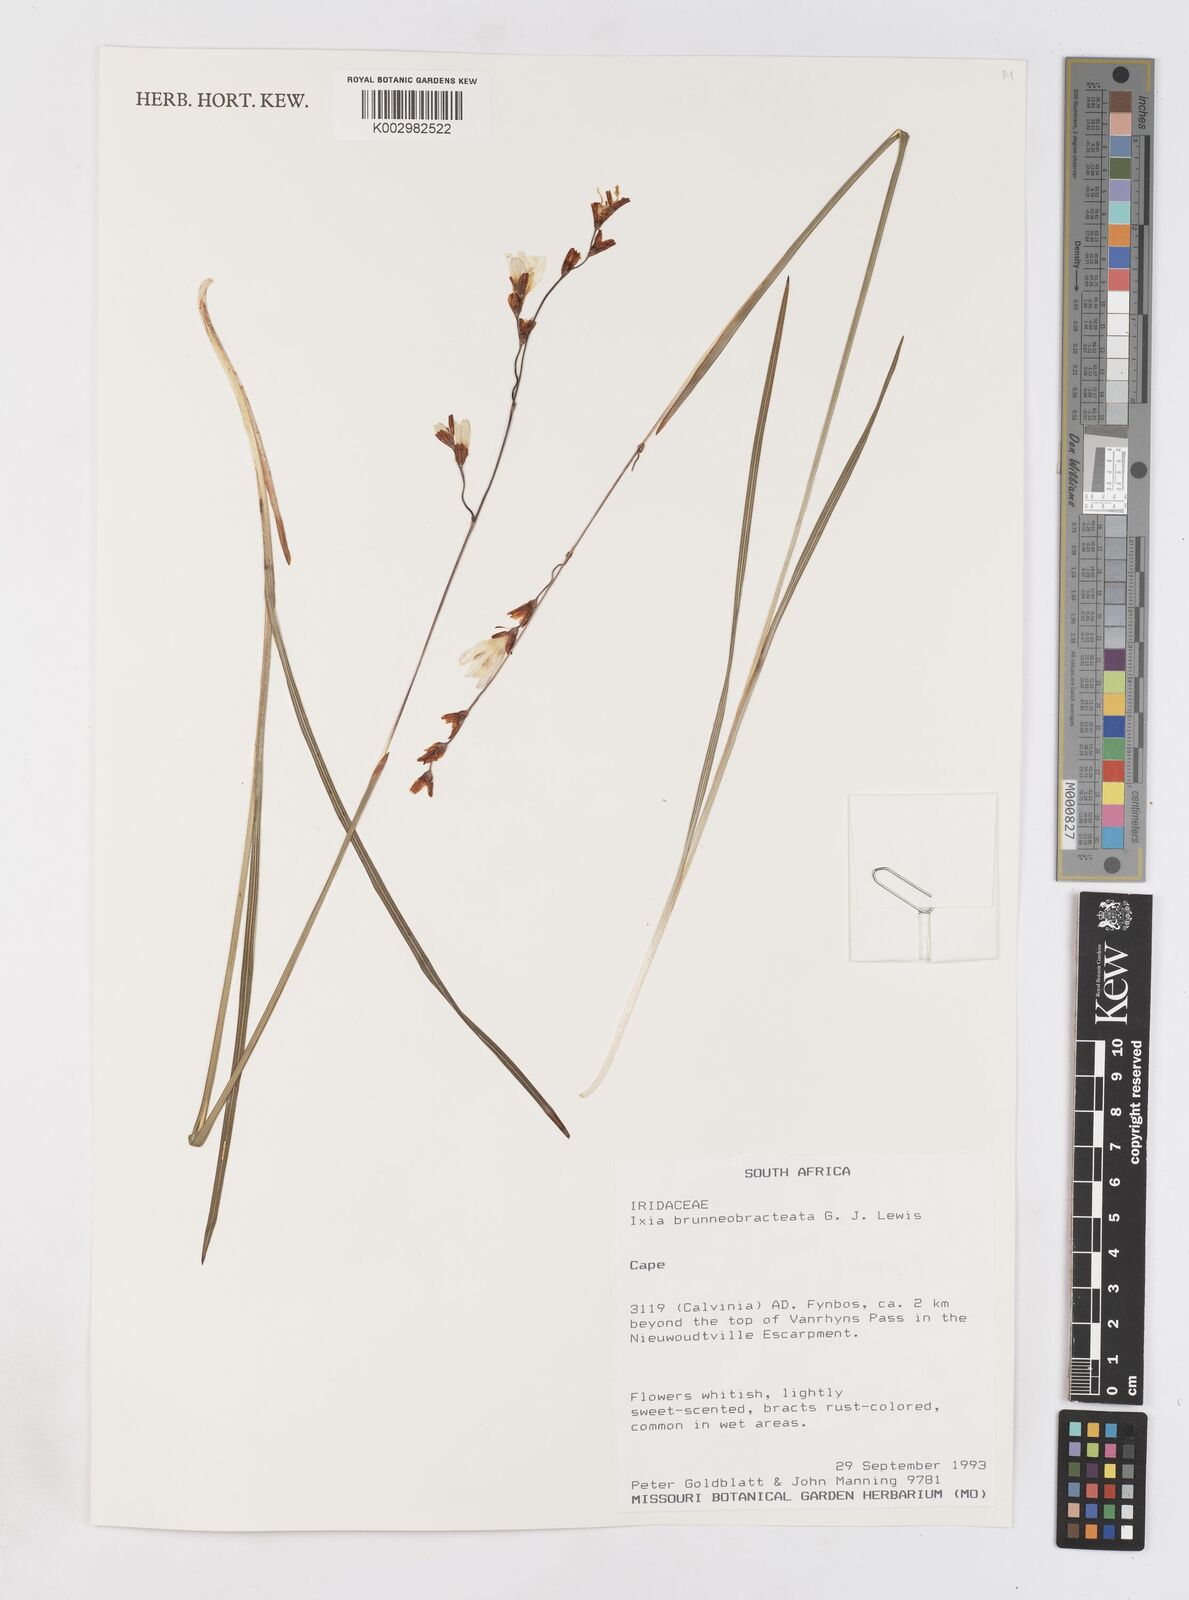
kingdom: Plantae
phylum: Tracheophyta
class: Liliopsida
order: Asparagales
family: Iridaceae
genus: Ixia
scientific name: Ixia brunneobractea
